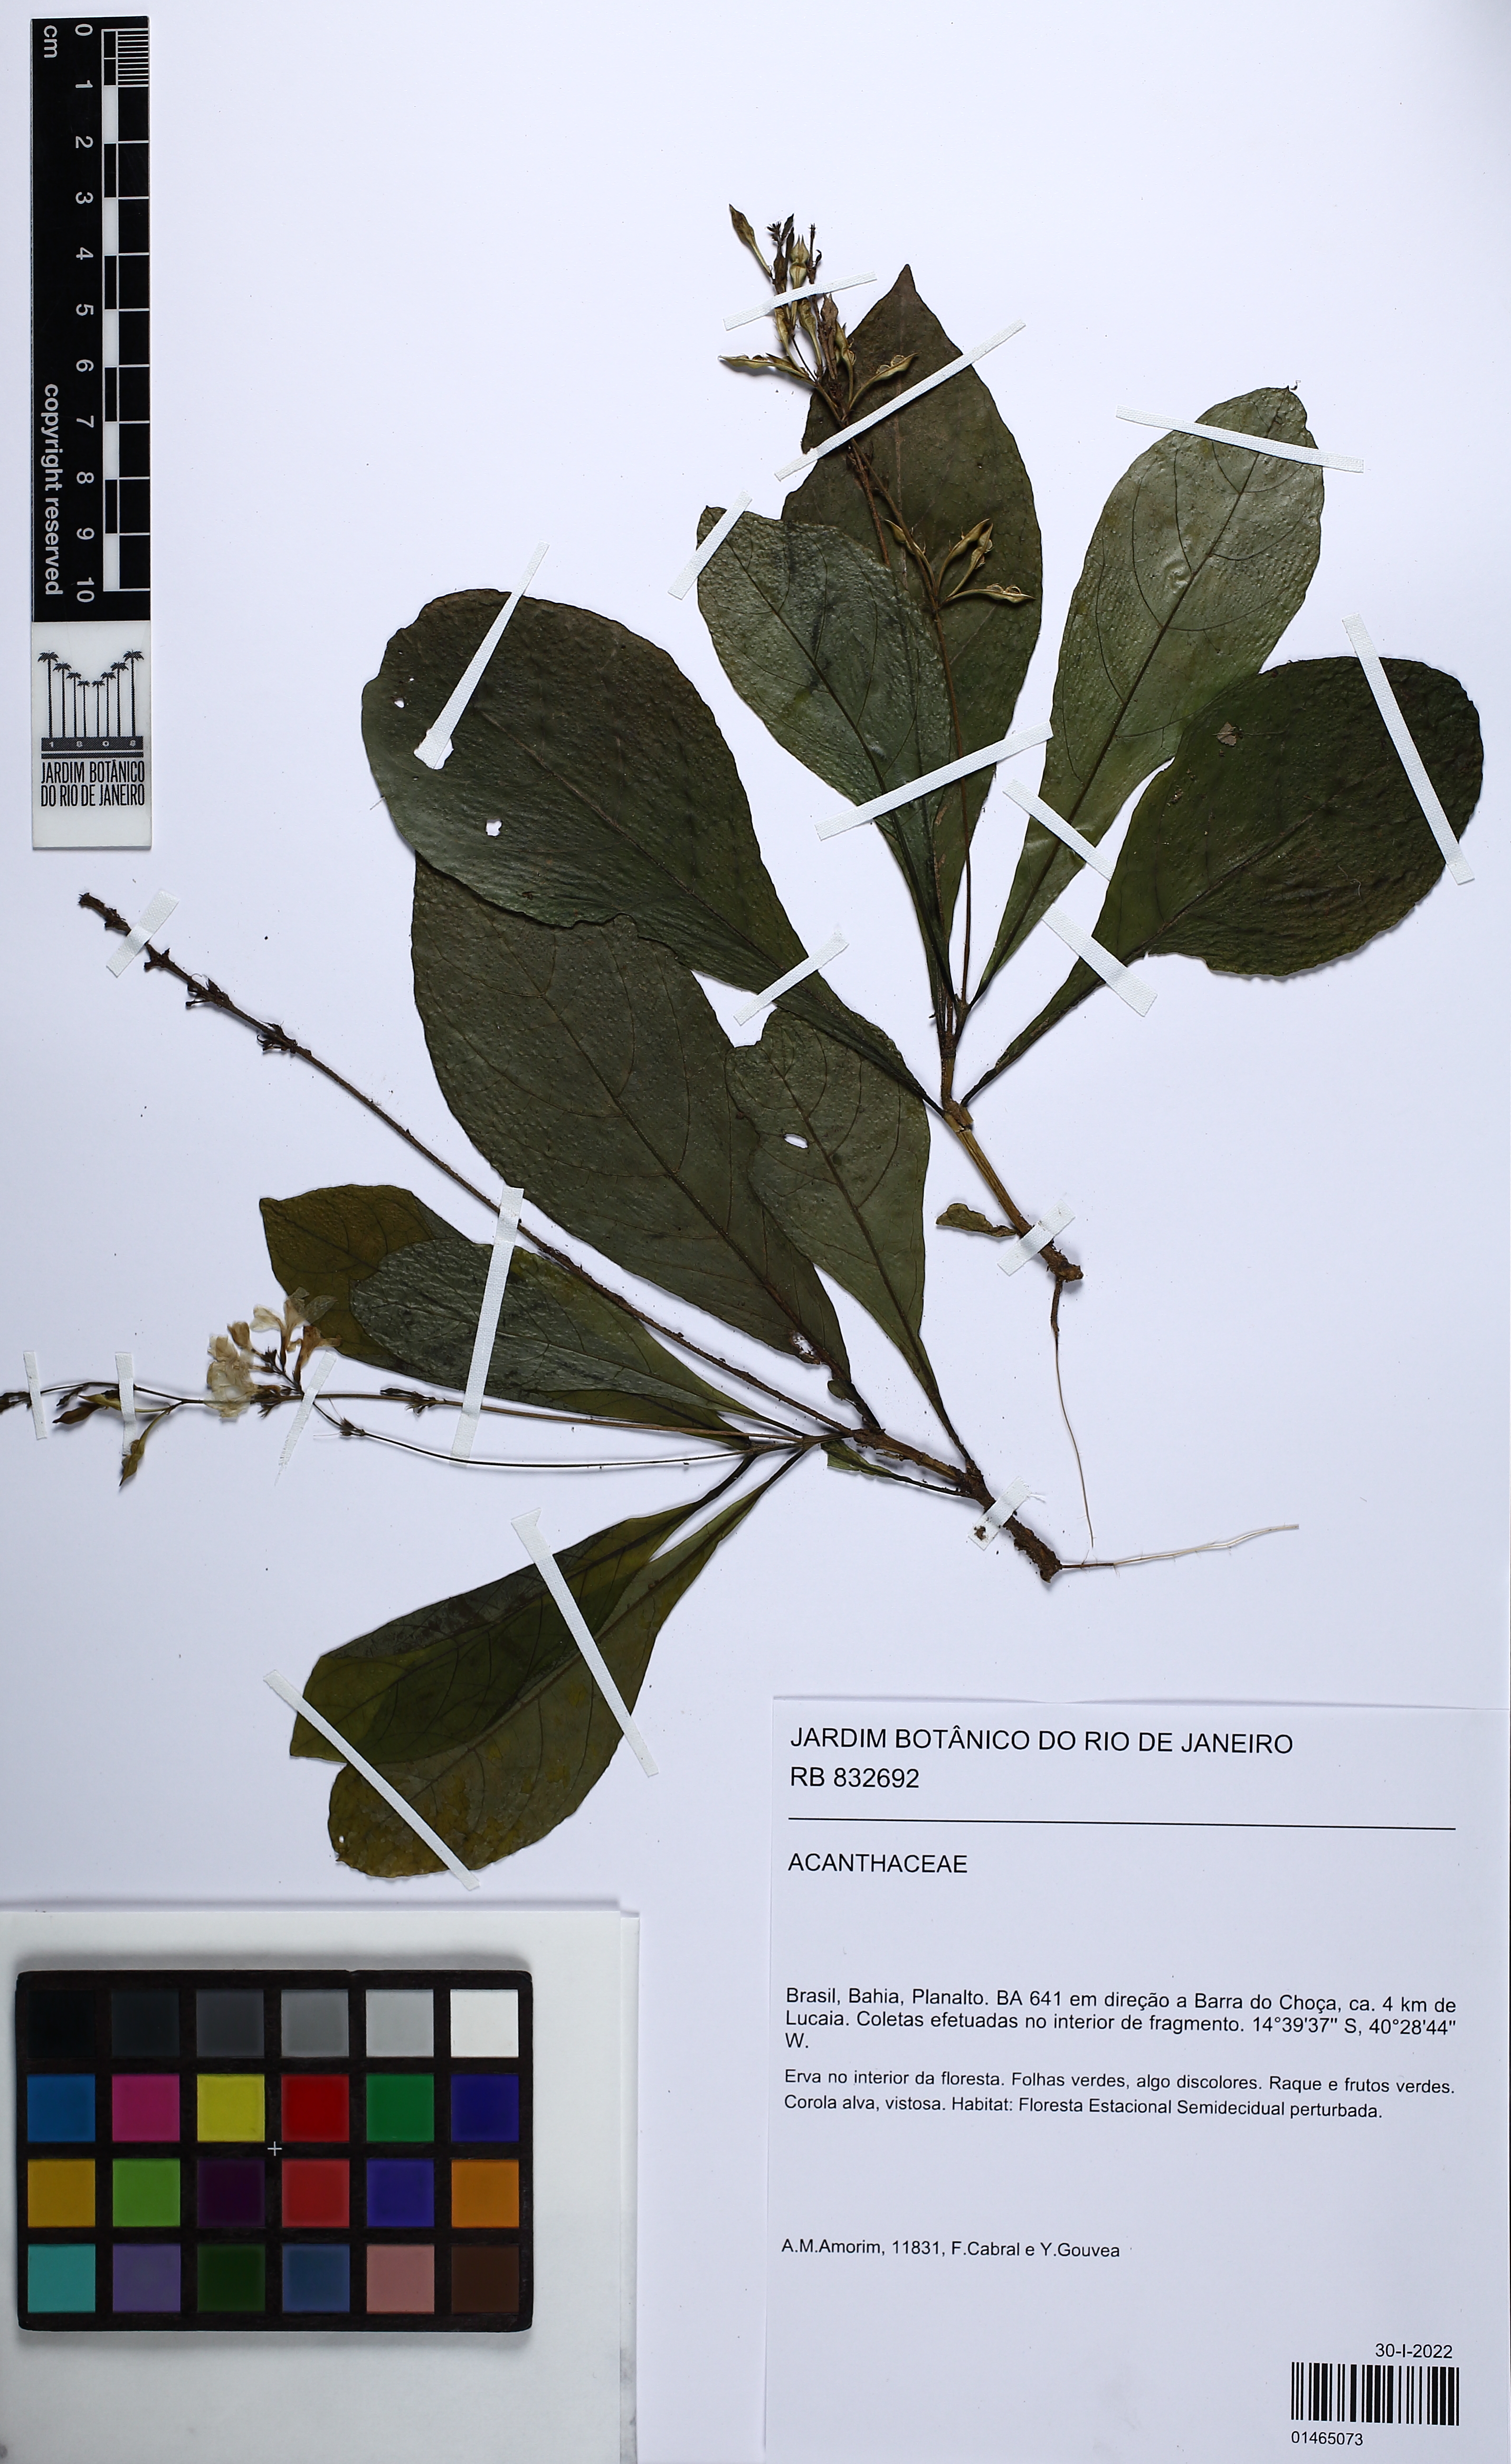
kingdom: Plantae
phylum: Tracheophyta
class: Magnoliopsida
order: Lamiales
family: Acanthaceae
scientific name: Acanthaceae
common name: Acanthaceae
